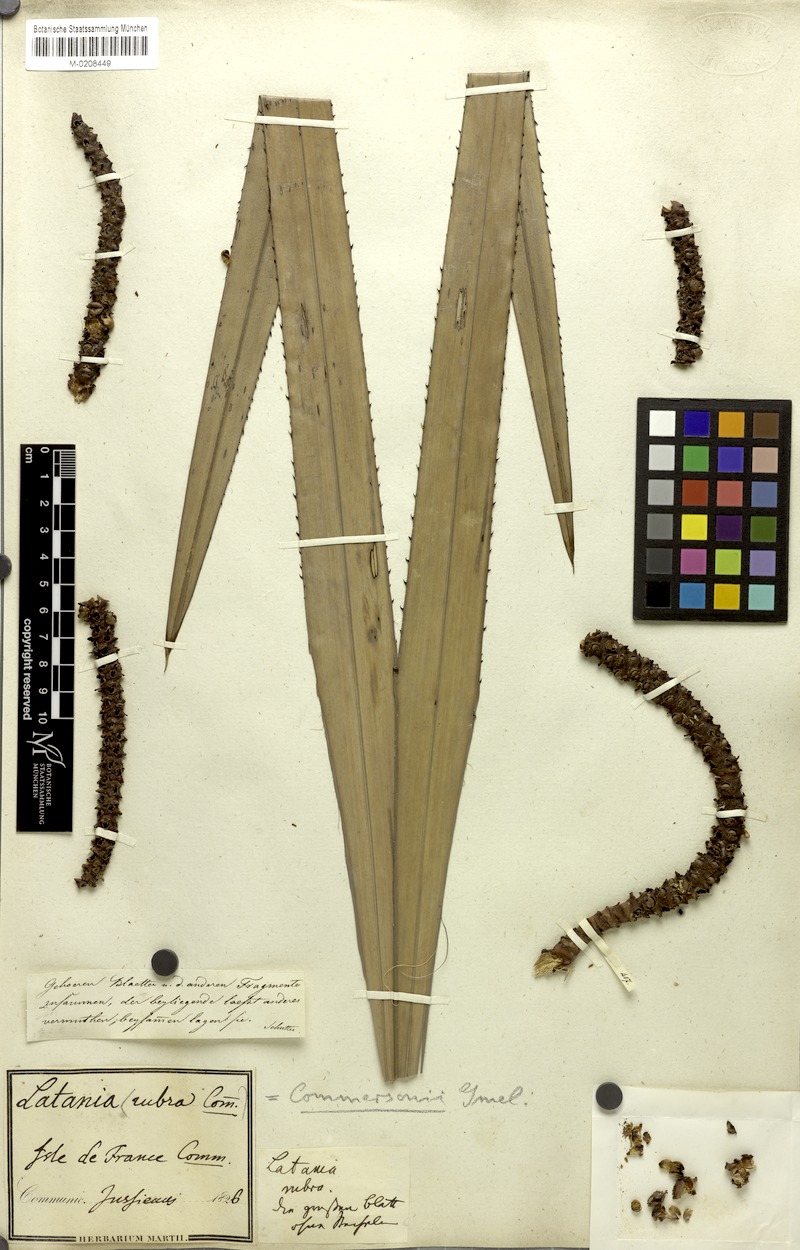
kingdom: Plantae
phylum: Tracheophyta
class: Liliopsida
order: Arecales
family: Arecaceae
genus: Latania
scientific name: Latania lontaroides
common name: Red latan
